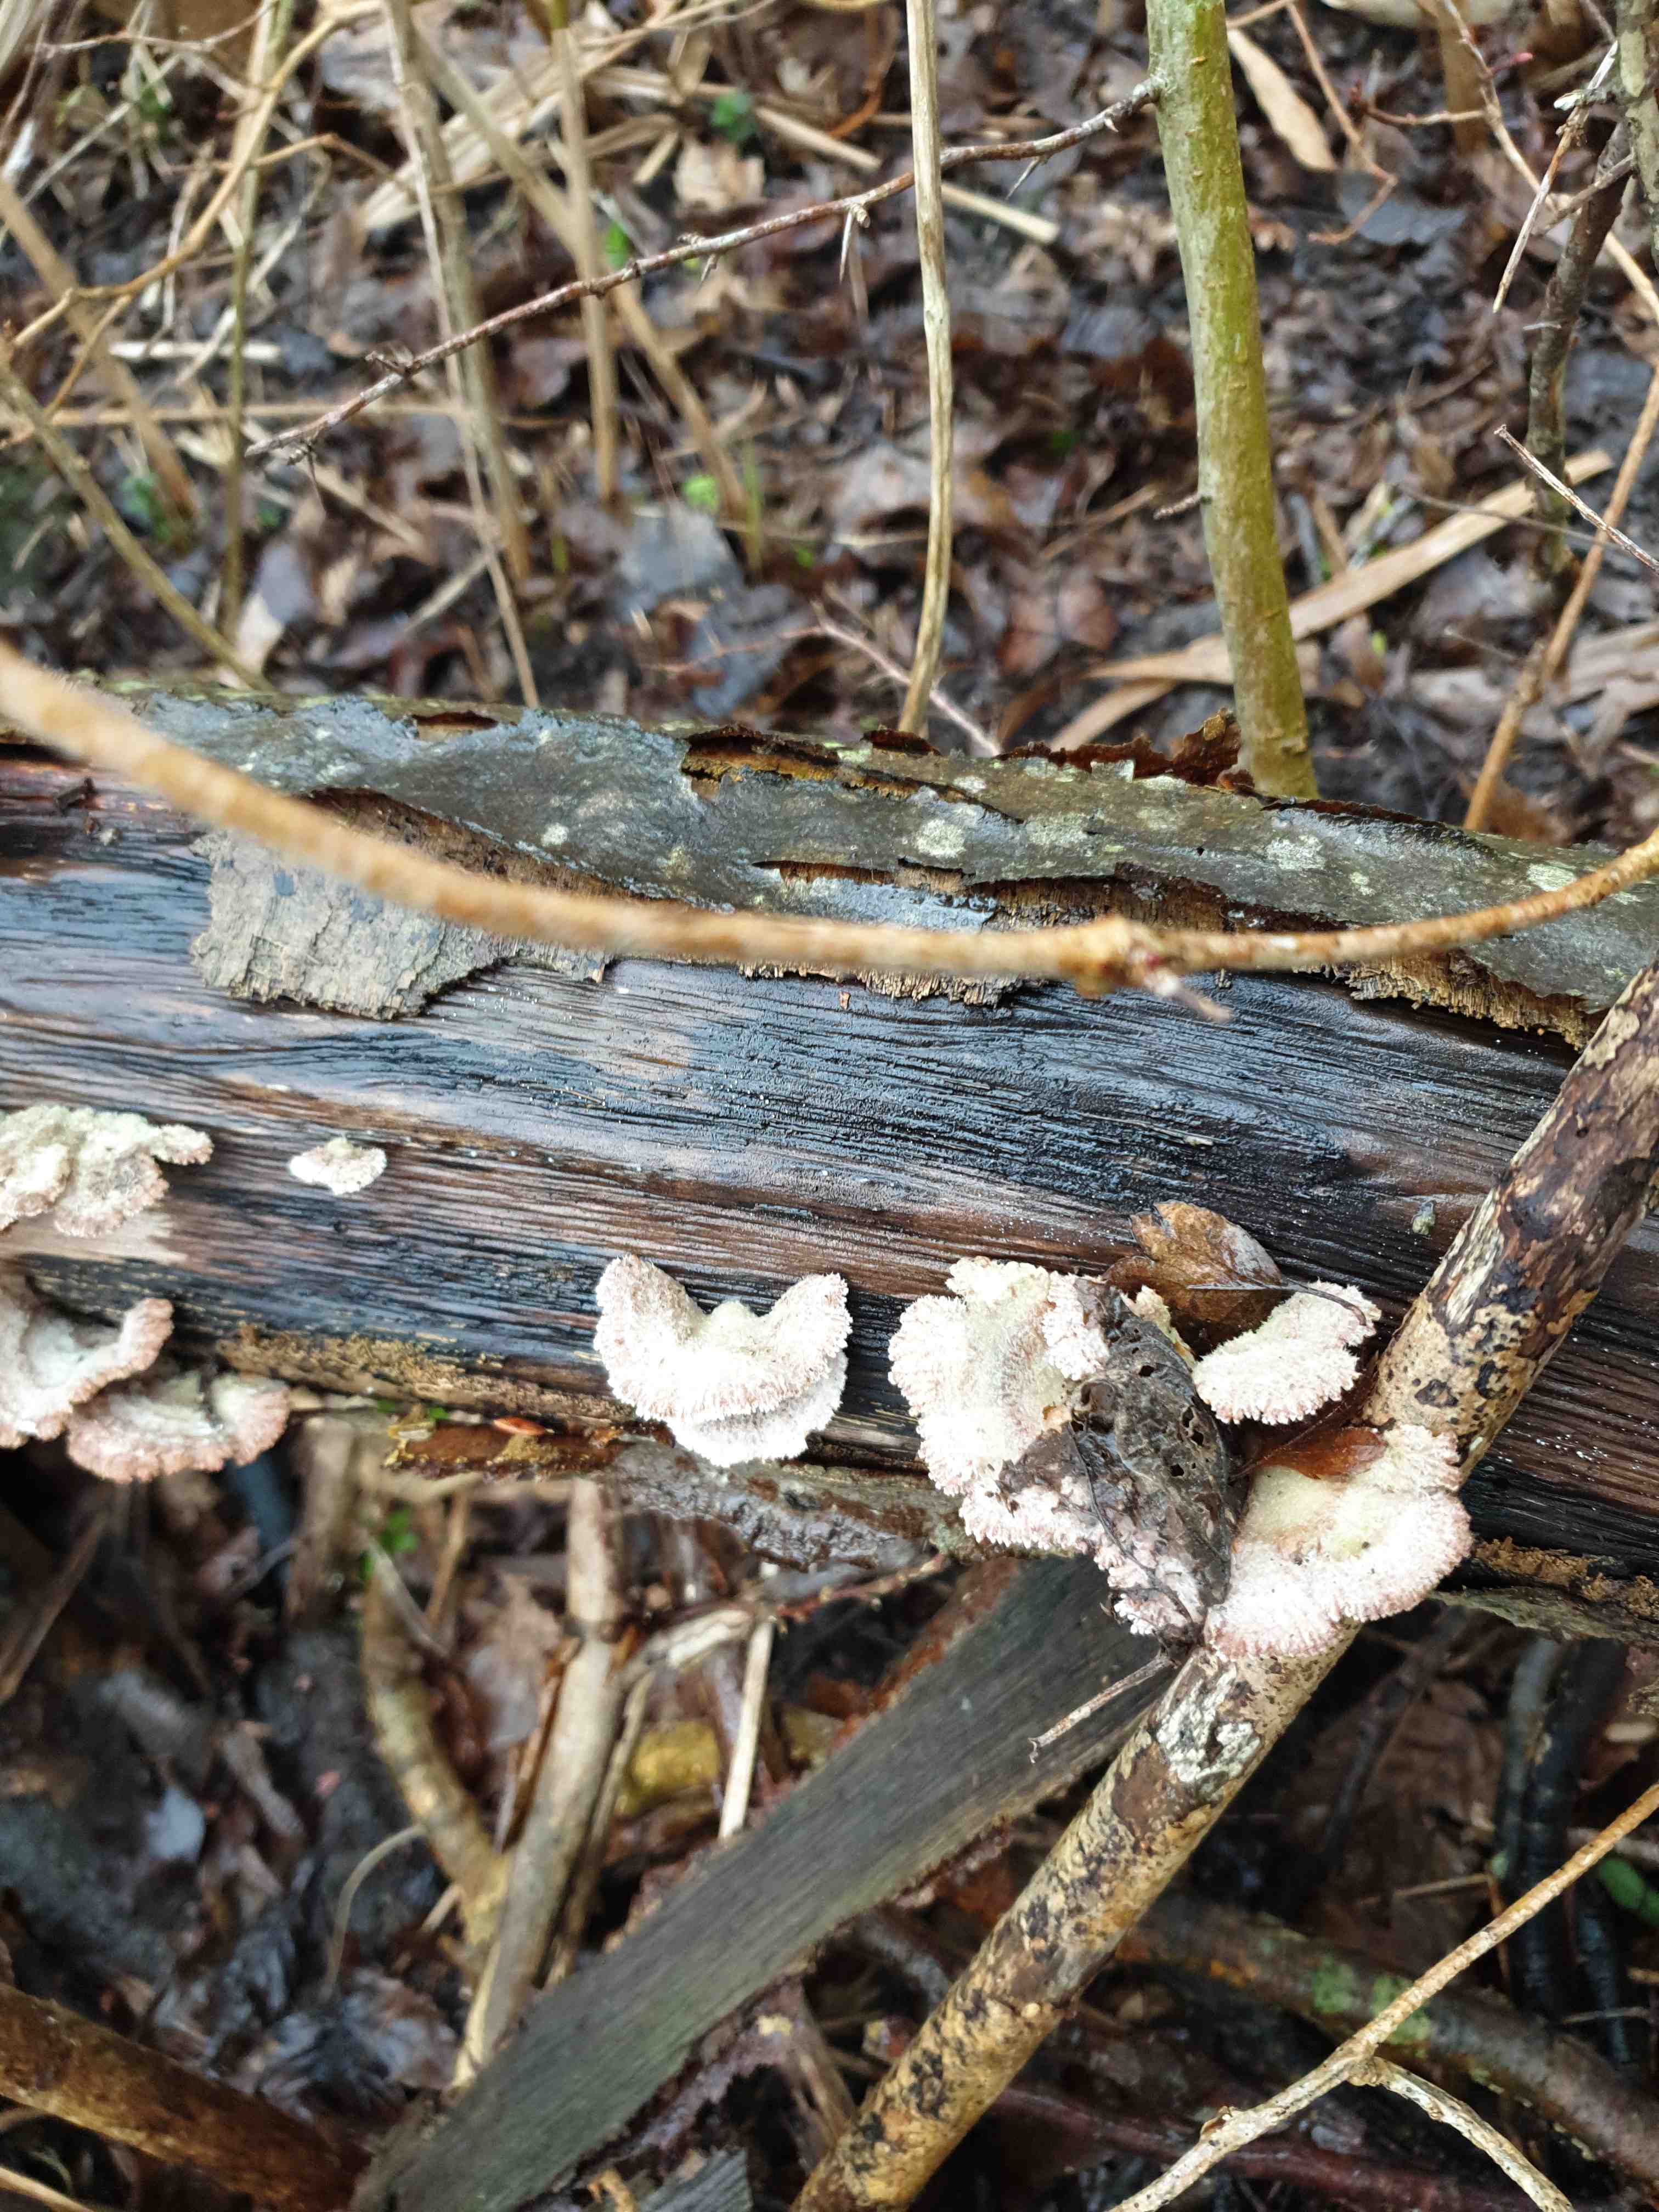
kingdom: Fungi
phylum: Basidiomycota
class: Agaricomycetes
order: Agaricales
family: Schizophyllaceae
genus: Schizophyllum
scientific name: Schizophyllum commune
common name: kløvblad
